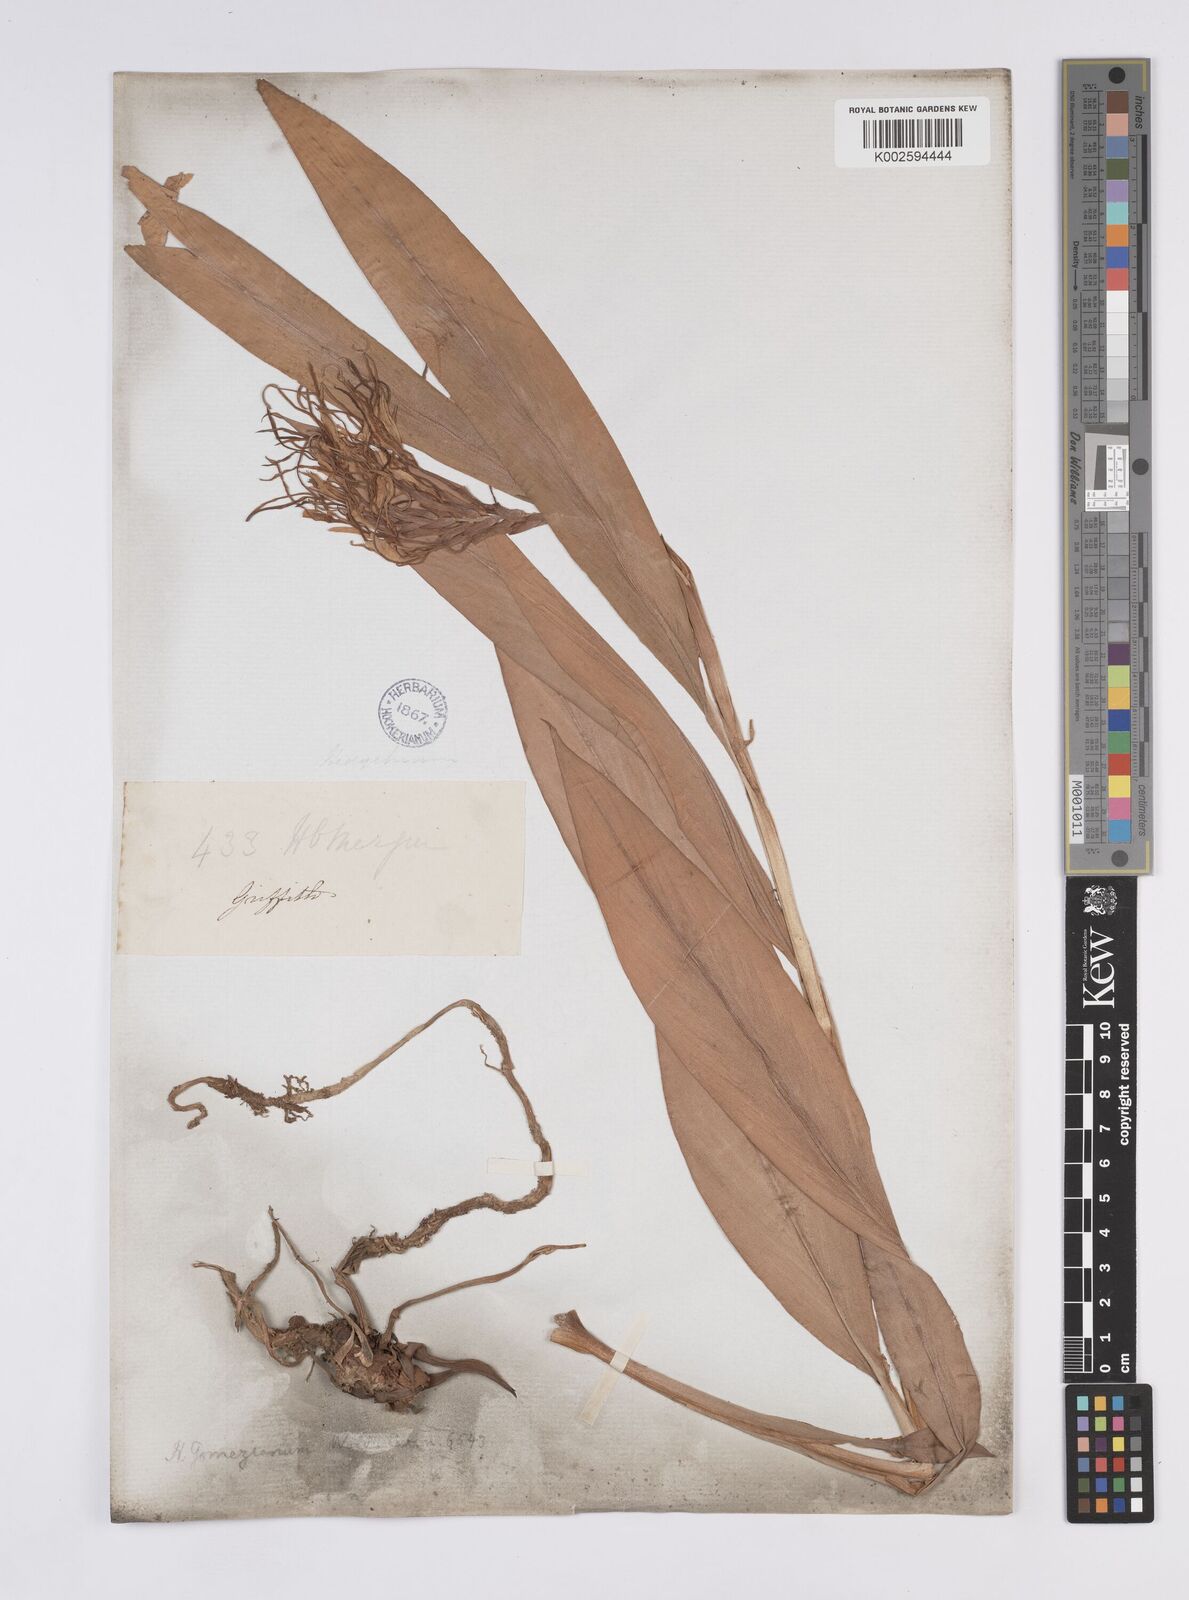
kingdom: Plantae
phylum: Tracheophyta
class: Liliopsida
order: Zingiberales
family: Zingiberaceae
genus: Hedychium
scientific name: Hedychium gomezianum
